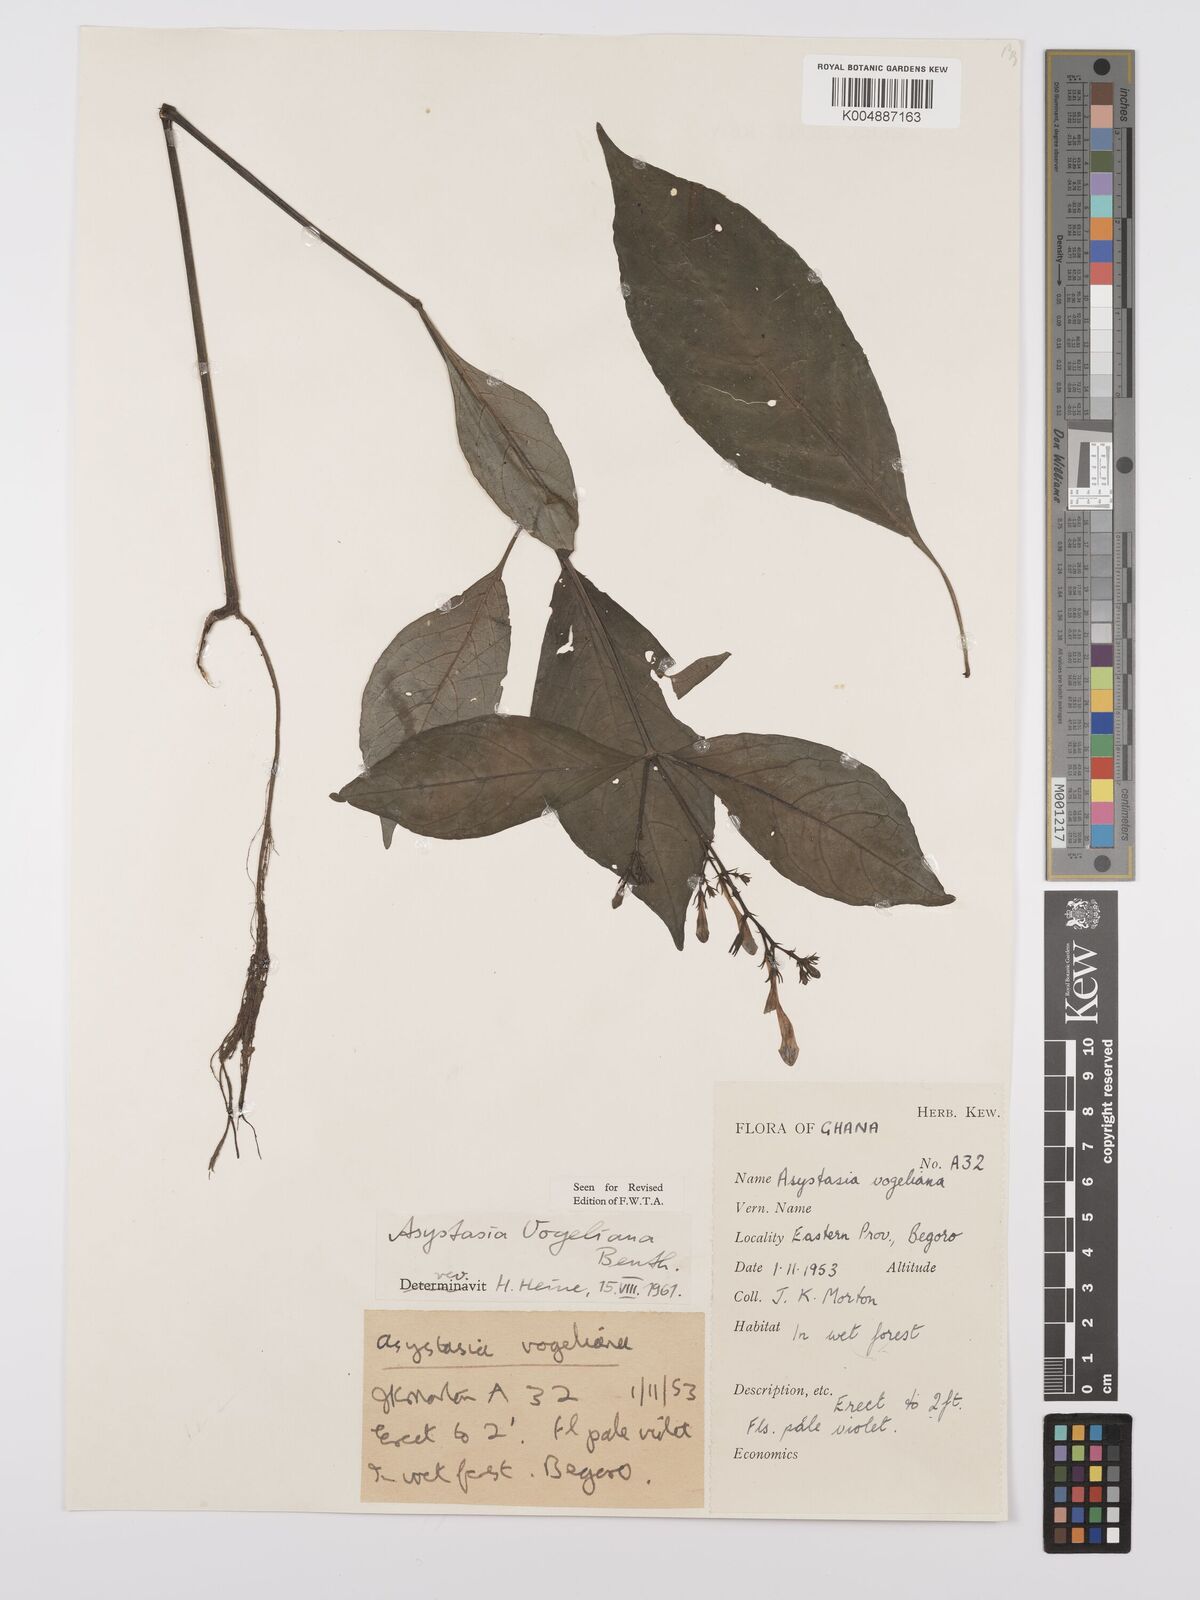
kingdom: Plantae
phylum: Tracheophyta
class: Magnoliopsida
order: Lamiales
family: Acanthaceae
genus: Asystasia
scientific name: Asystasia vogeliana
